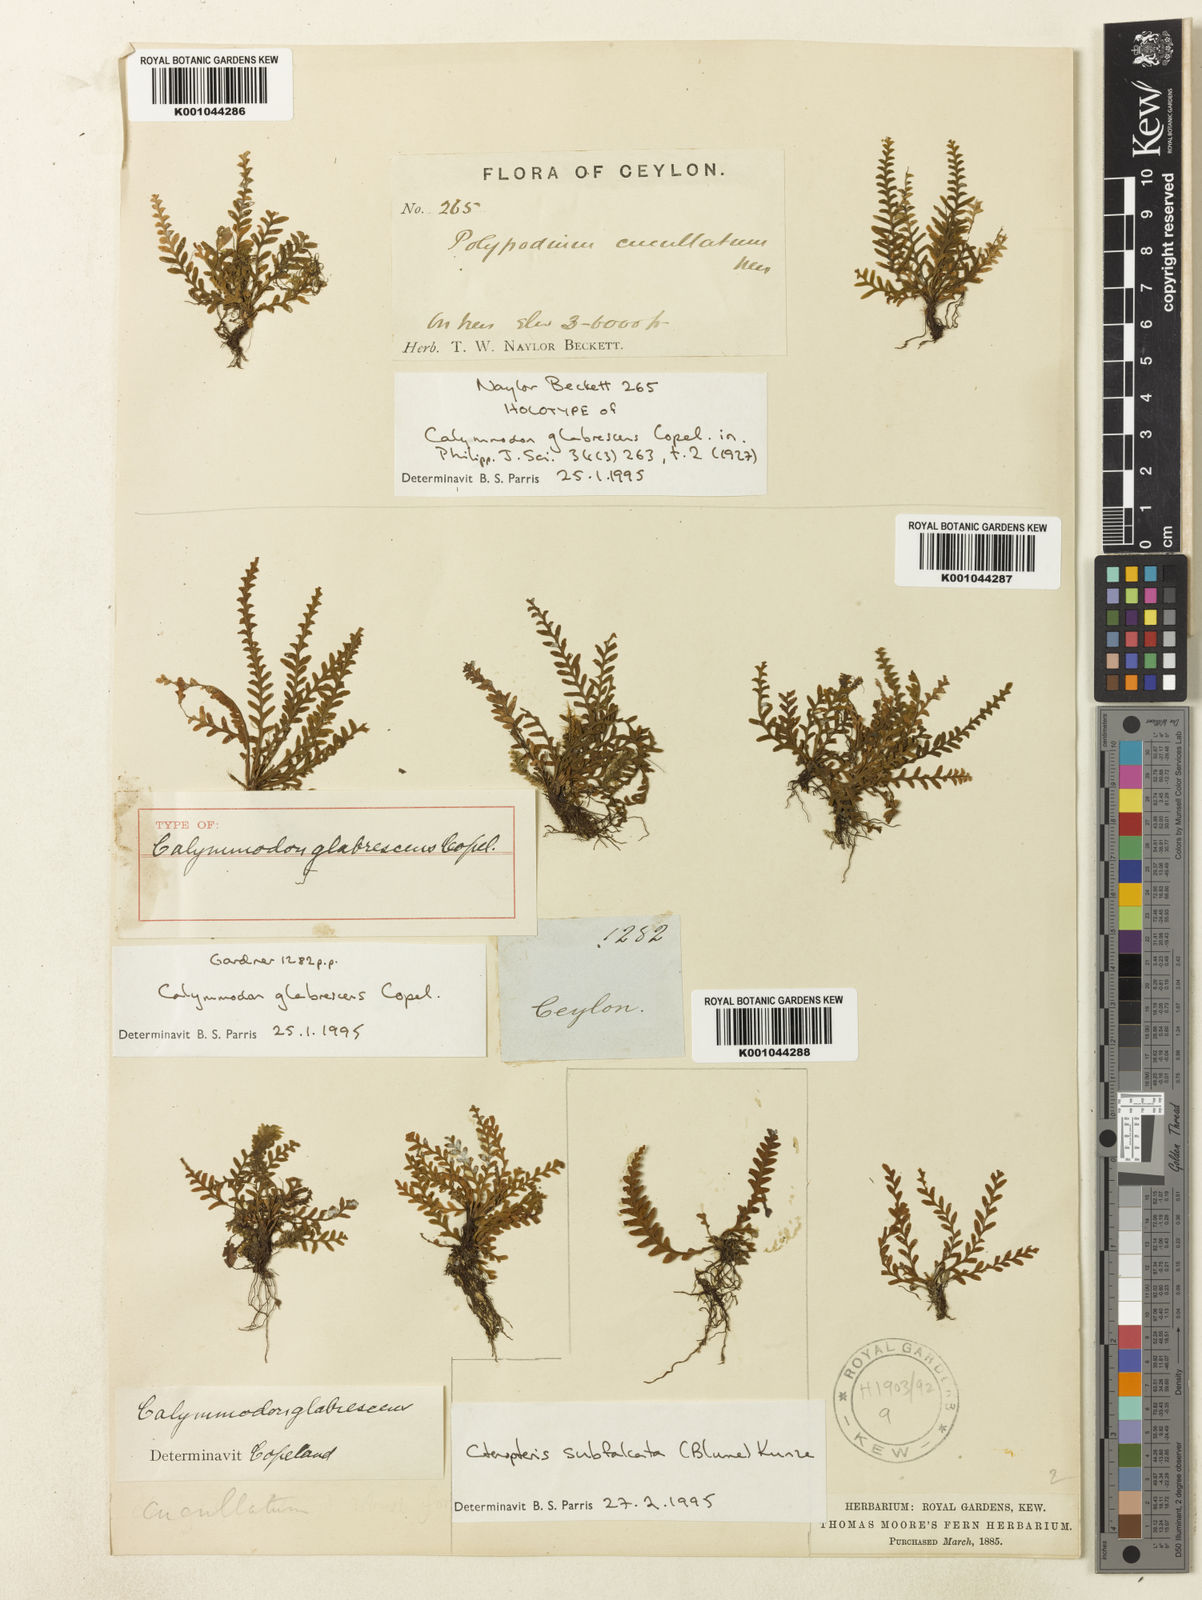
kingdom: Plantae
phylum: Tracheophyta
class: Polypodiopsida
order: Polypodiales
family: Polypodiaceae
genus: Calymmodon
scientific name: Calymmodon glabrescens
